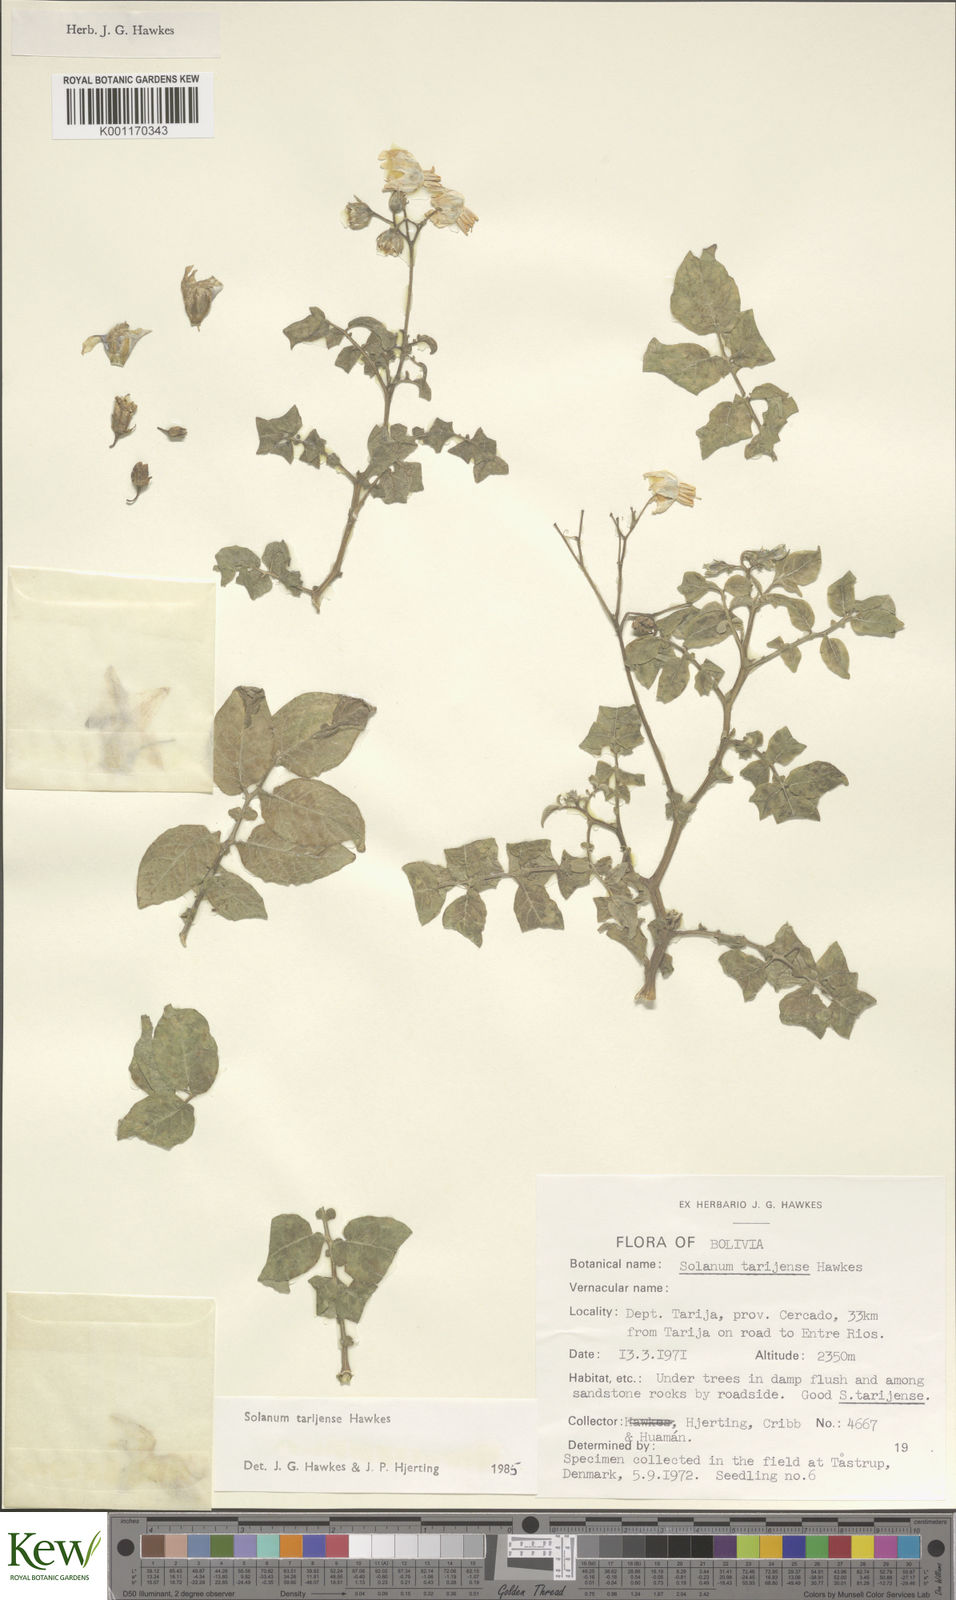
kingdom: Plantae
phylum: Tracheophyta
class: Magnoliopsida
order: Solanales
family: Solanaceae
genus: Solanum
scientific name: Solanum tarijense
